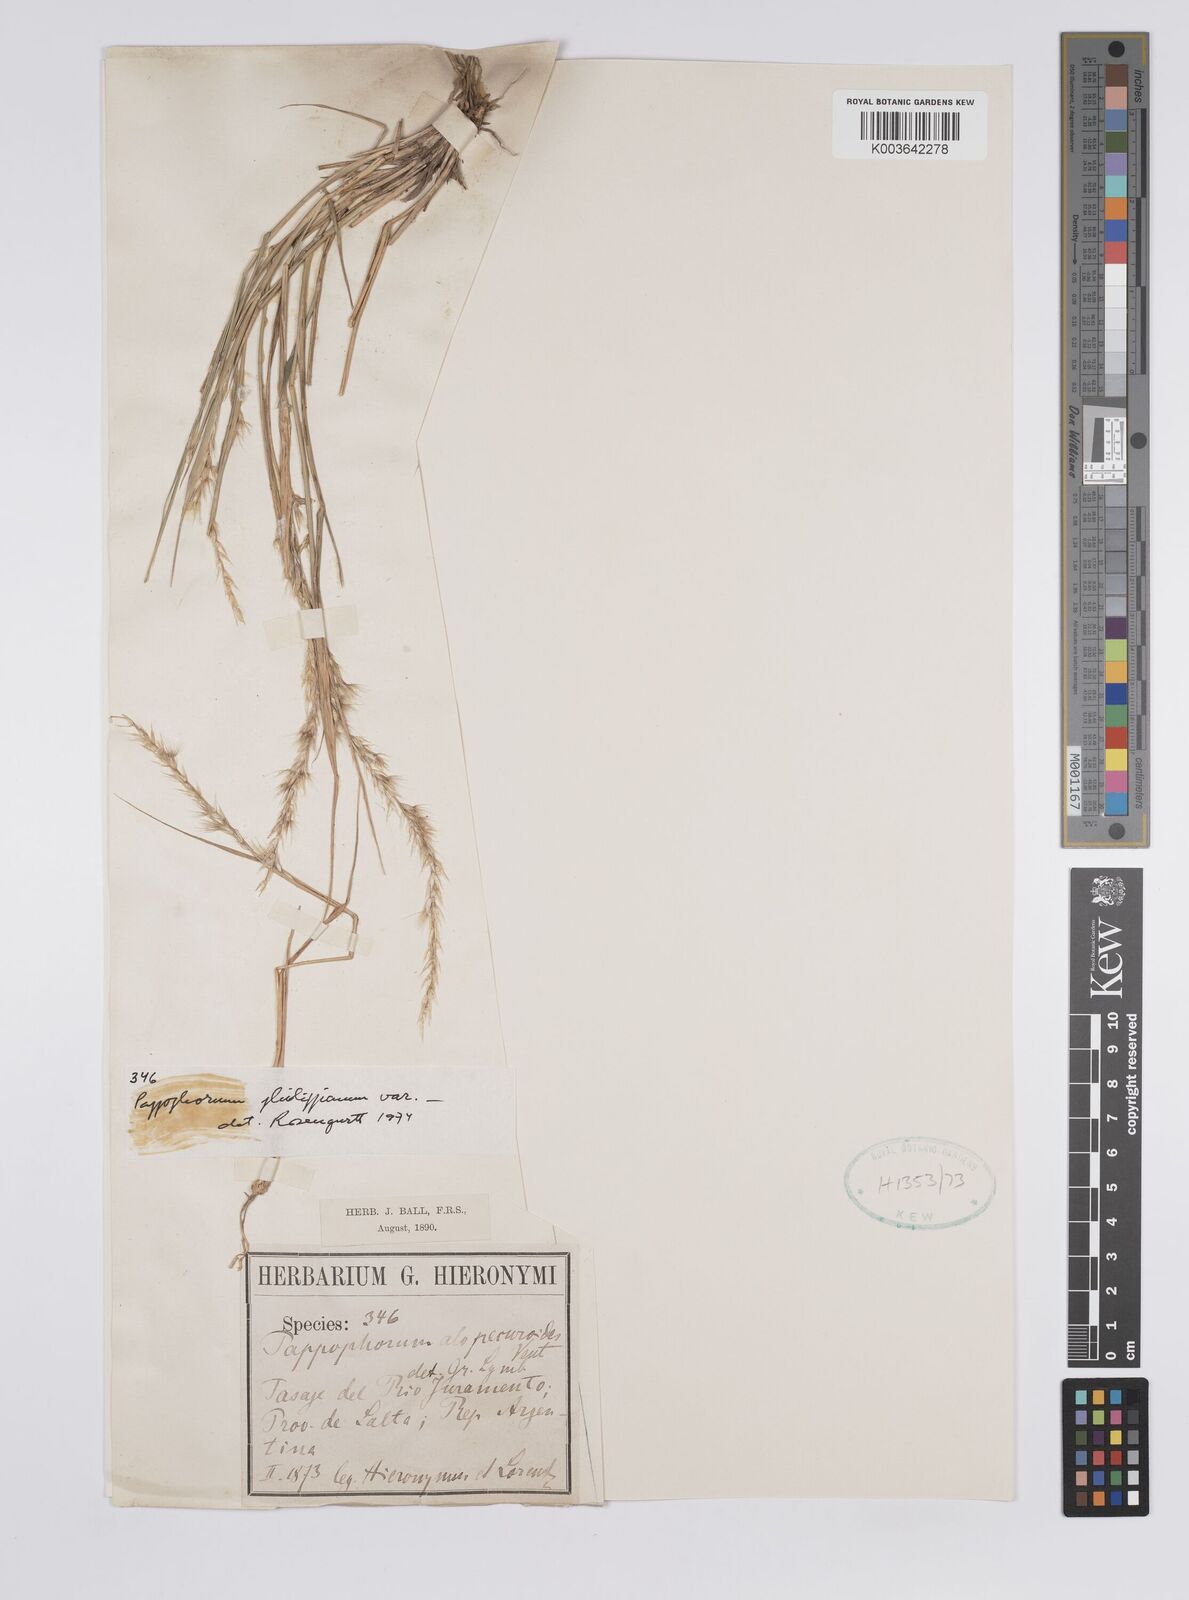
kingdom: Plantae
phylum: Tracheophyta
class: Liliopsida
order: Poales
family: Poaceae
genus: Pappophorum
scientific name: Pappophorum philippianum
